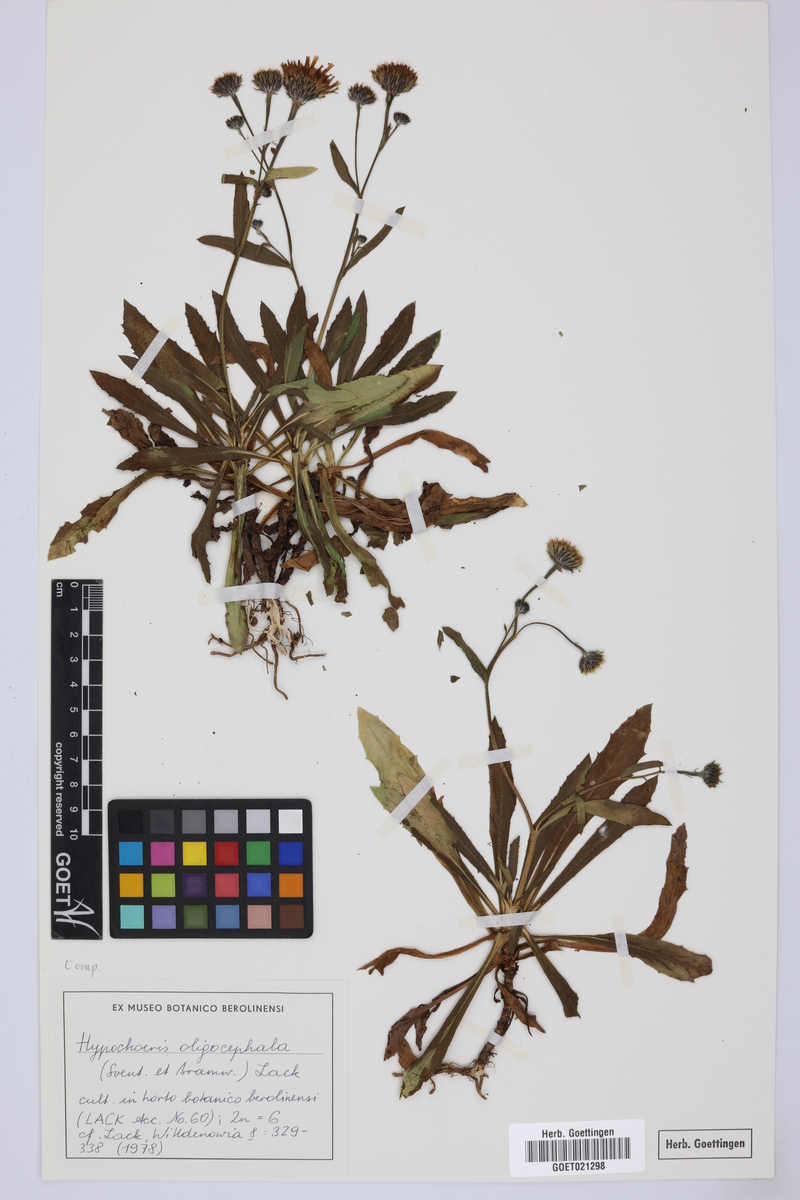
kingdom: Plantae
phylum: Tracheophyta
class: Magnoliopsida
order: Asterales
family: Asteraceae
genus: Hypochaeris
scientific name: Hypochaeris oligocephala
